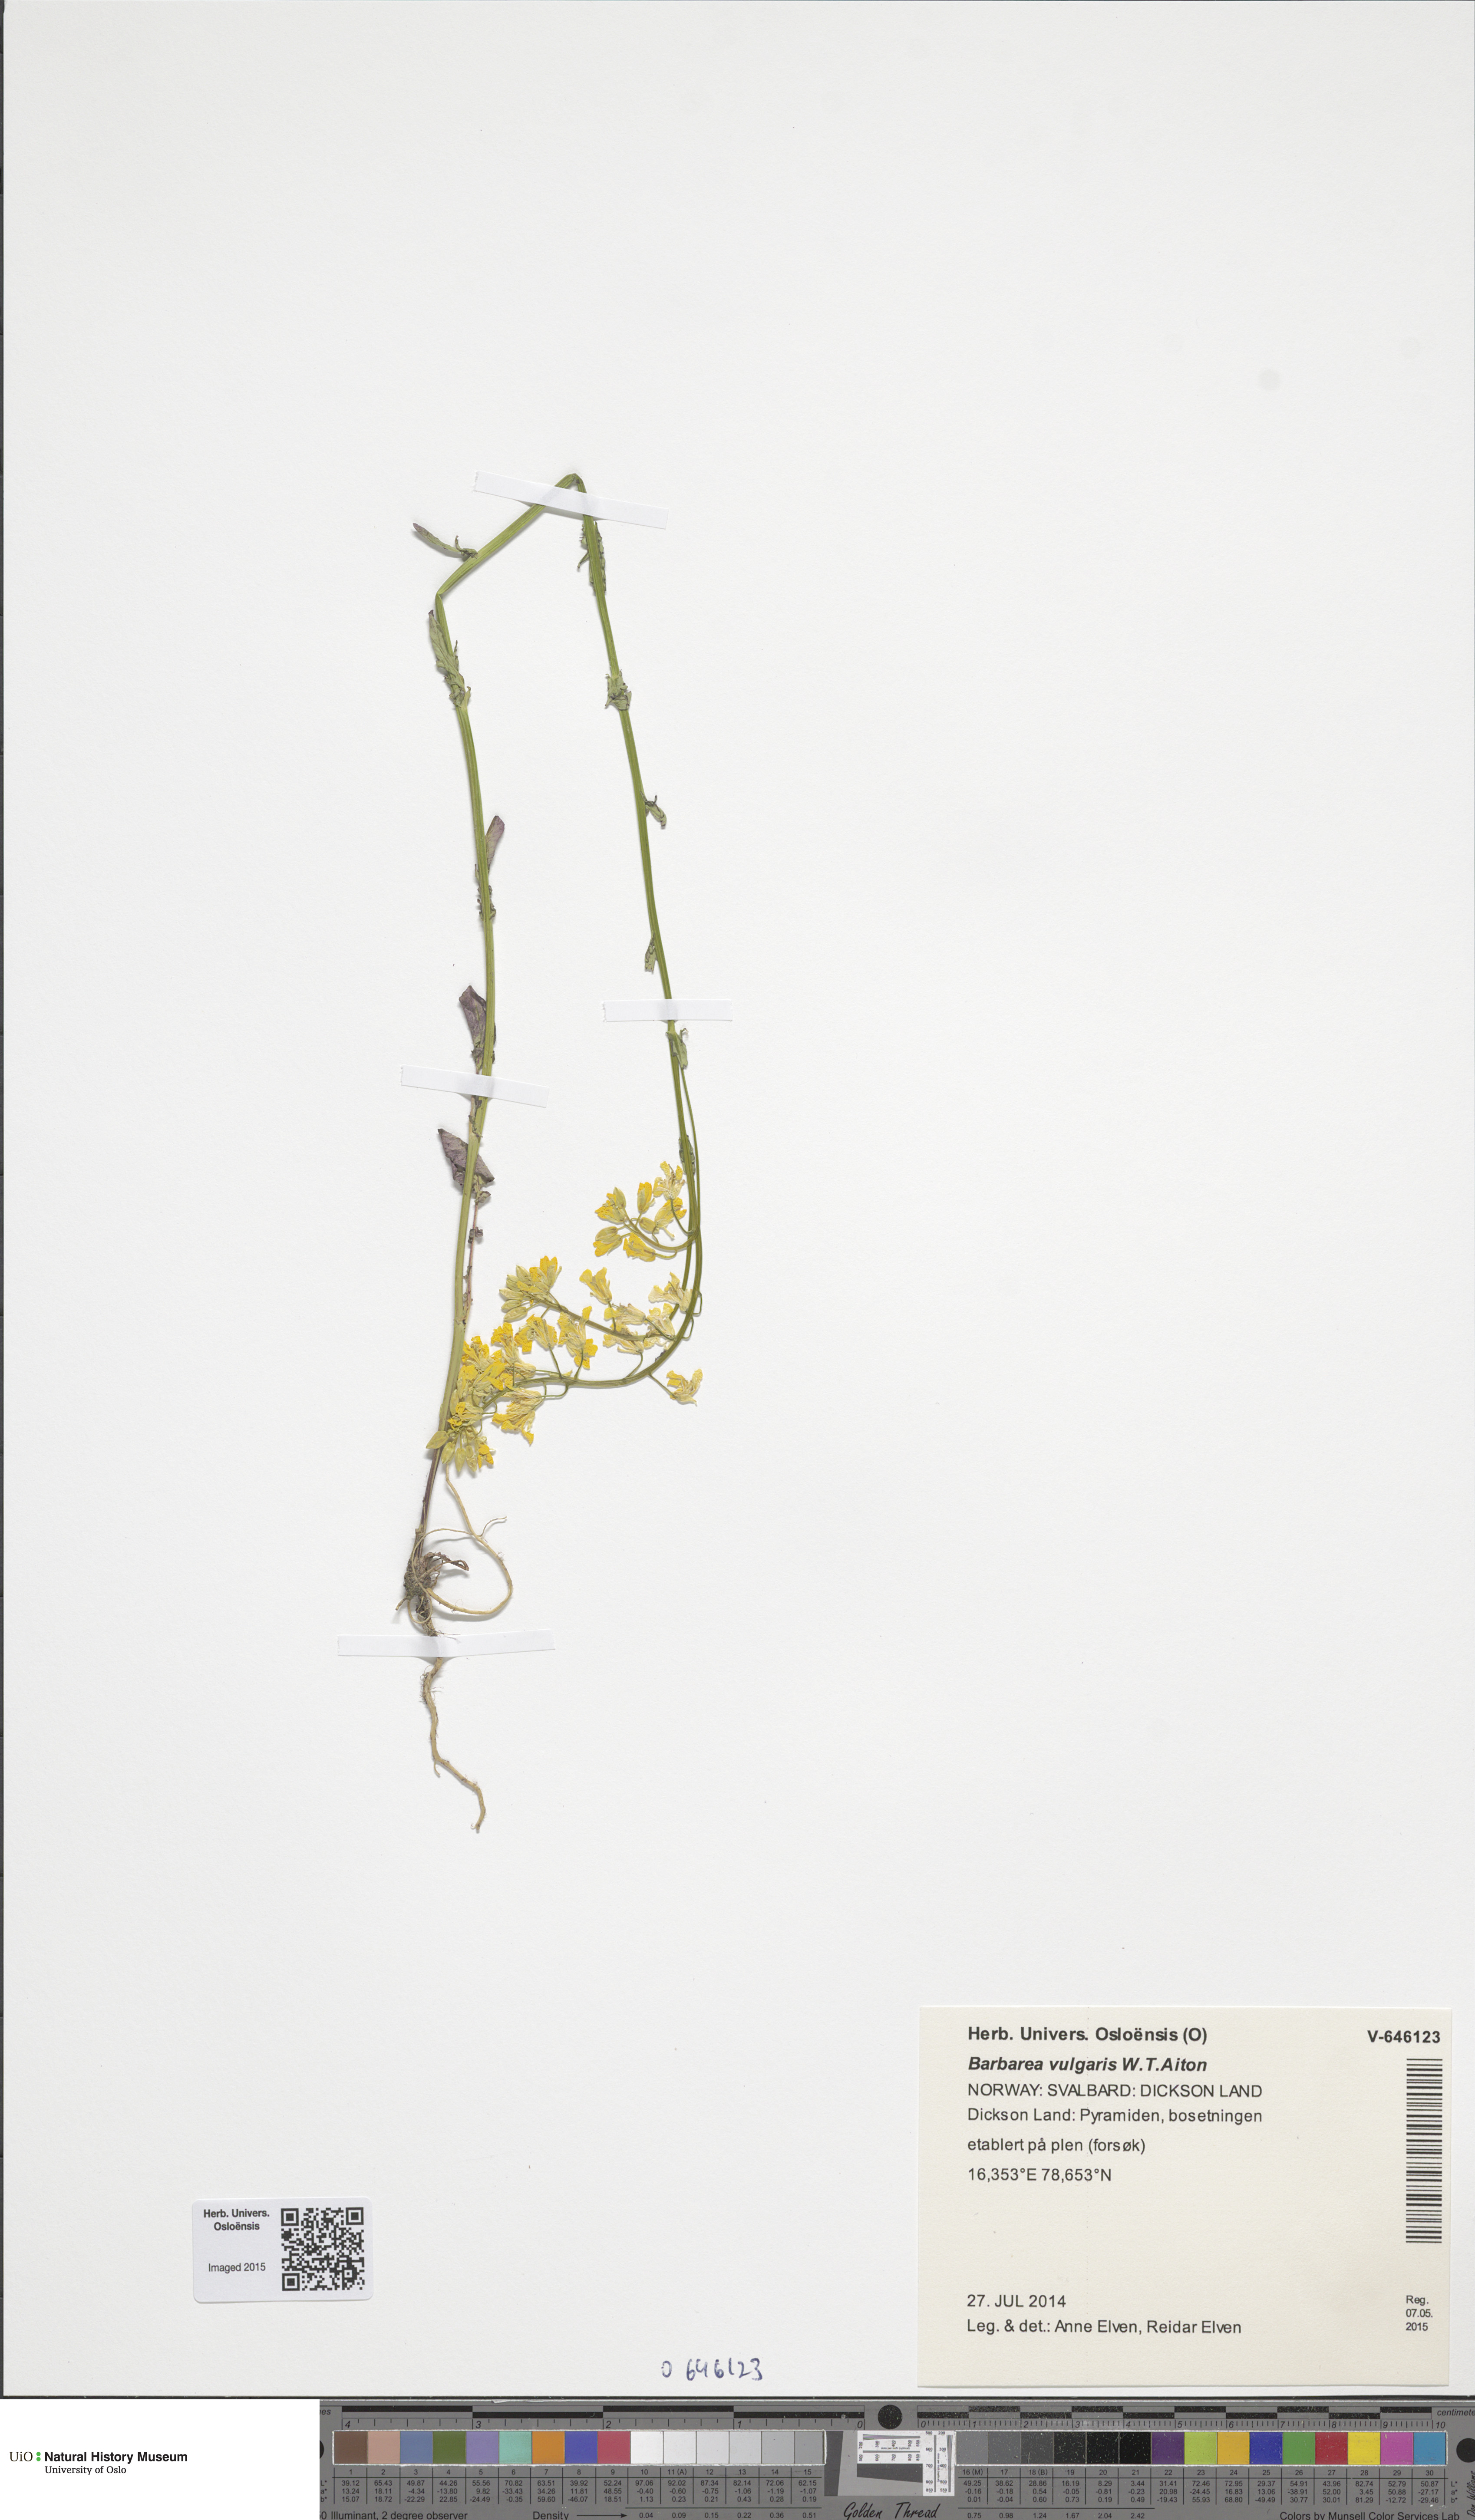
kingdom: Plantae
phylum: Tracheophyta
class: Magnoliopsida
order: Brassicales
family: Brassicaceae
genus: Barbarea
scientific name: Barbarea vulgaris
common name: Cressy-greens
